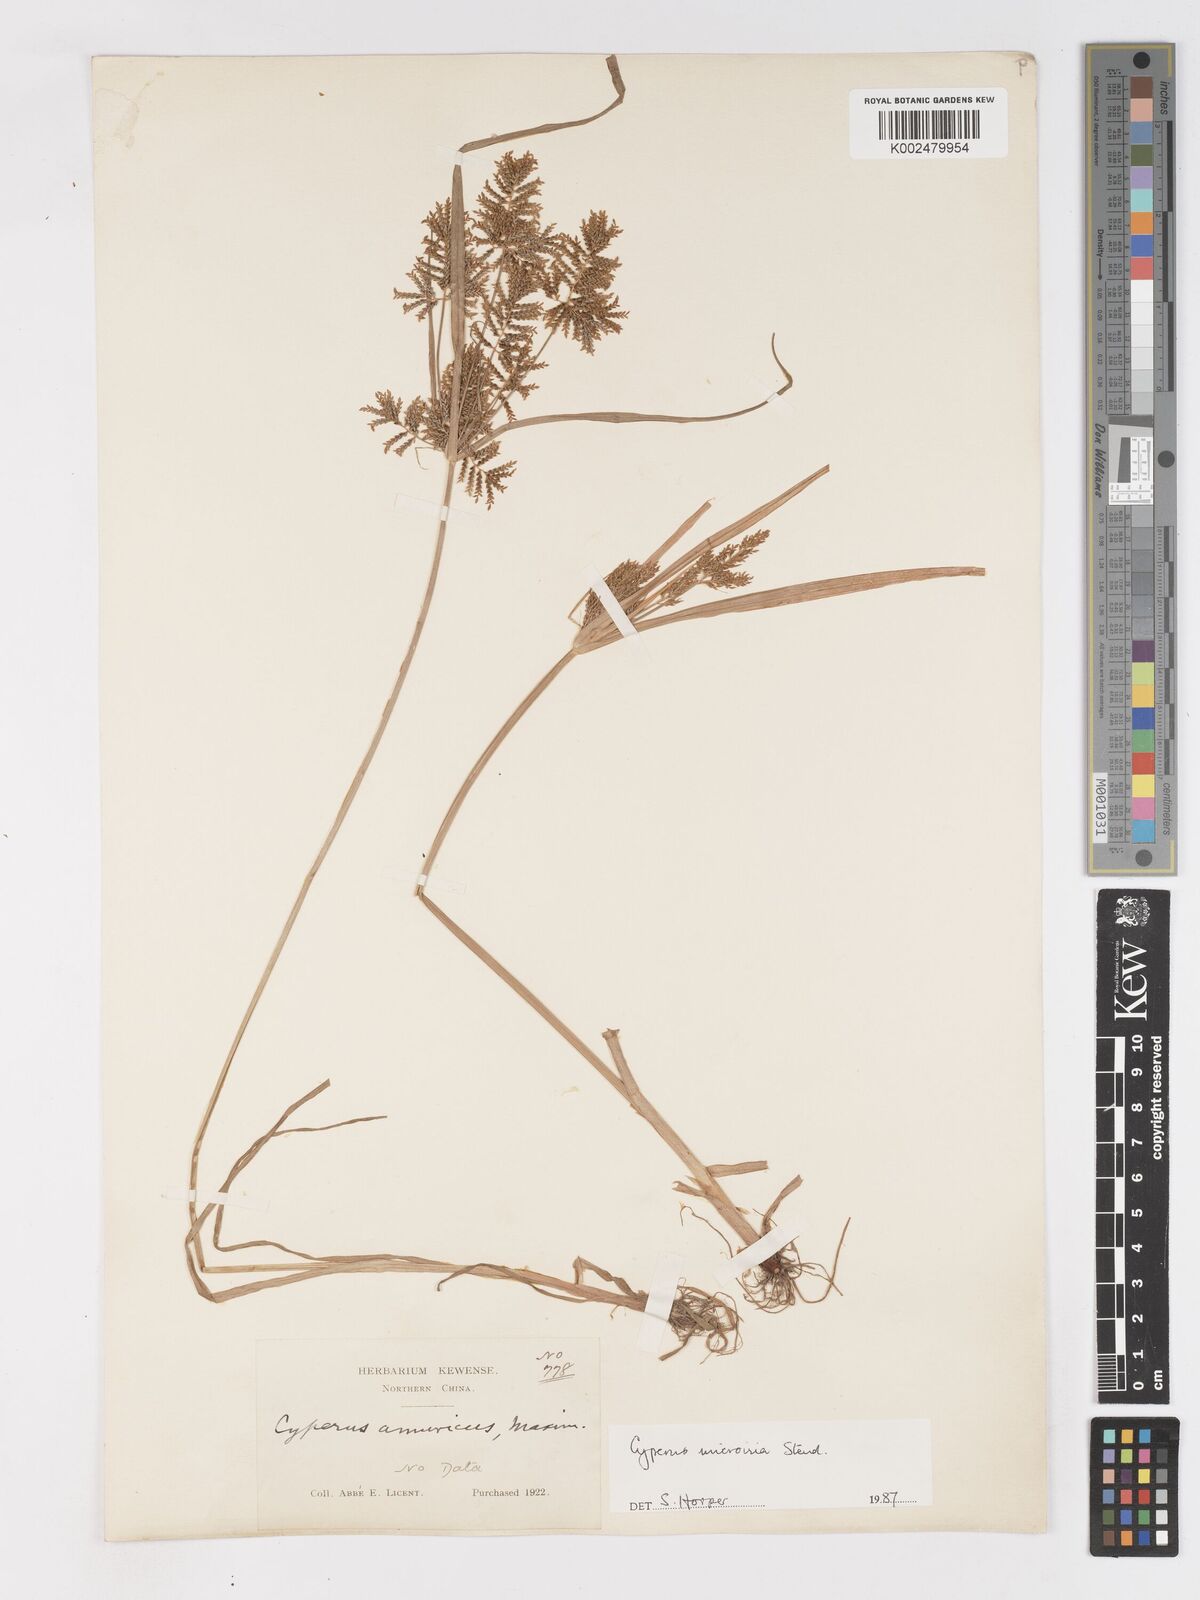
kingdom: Plantae
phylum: Tracheophyta
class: Liliopsida
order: Poales
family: Cyperaceae
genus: Cyperus
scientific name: Cyperus microiria
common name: Asian flatsedge
